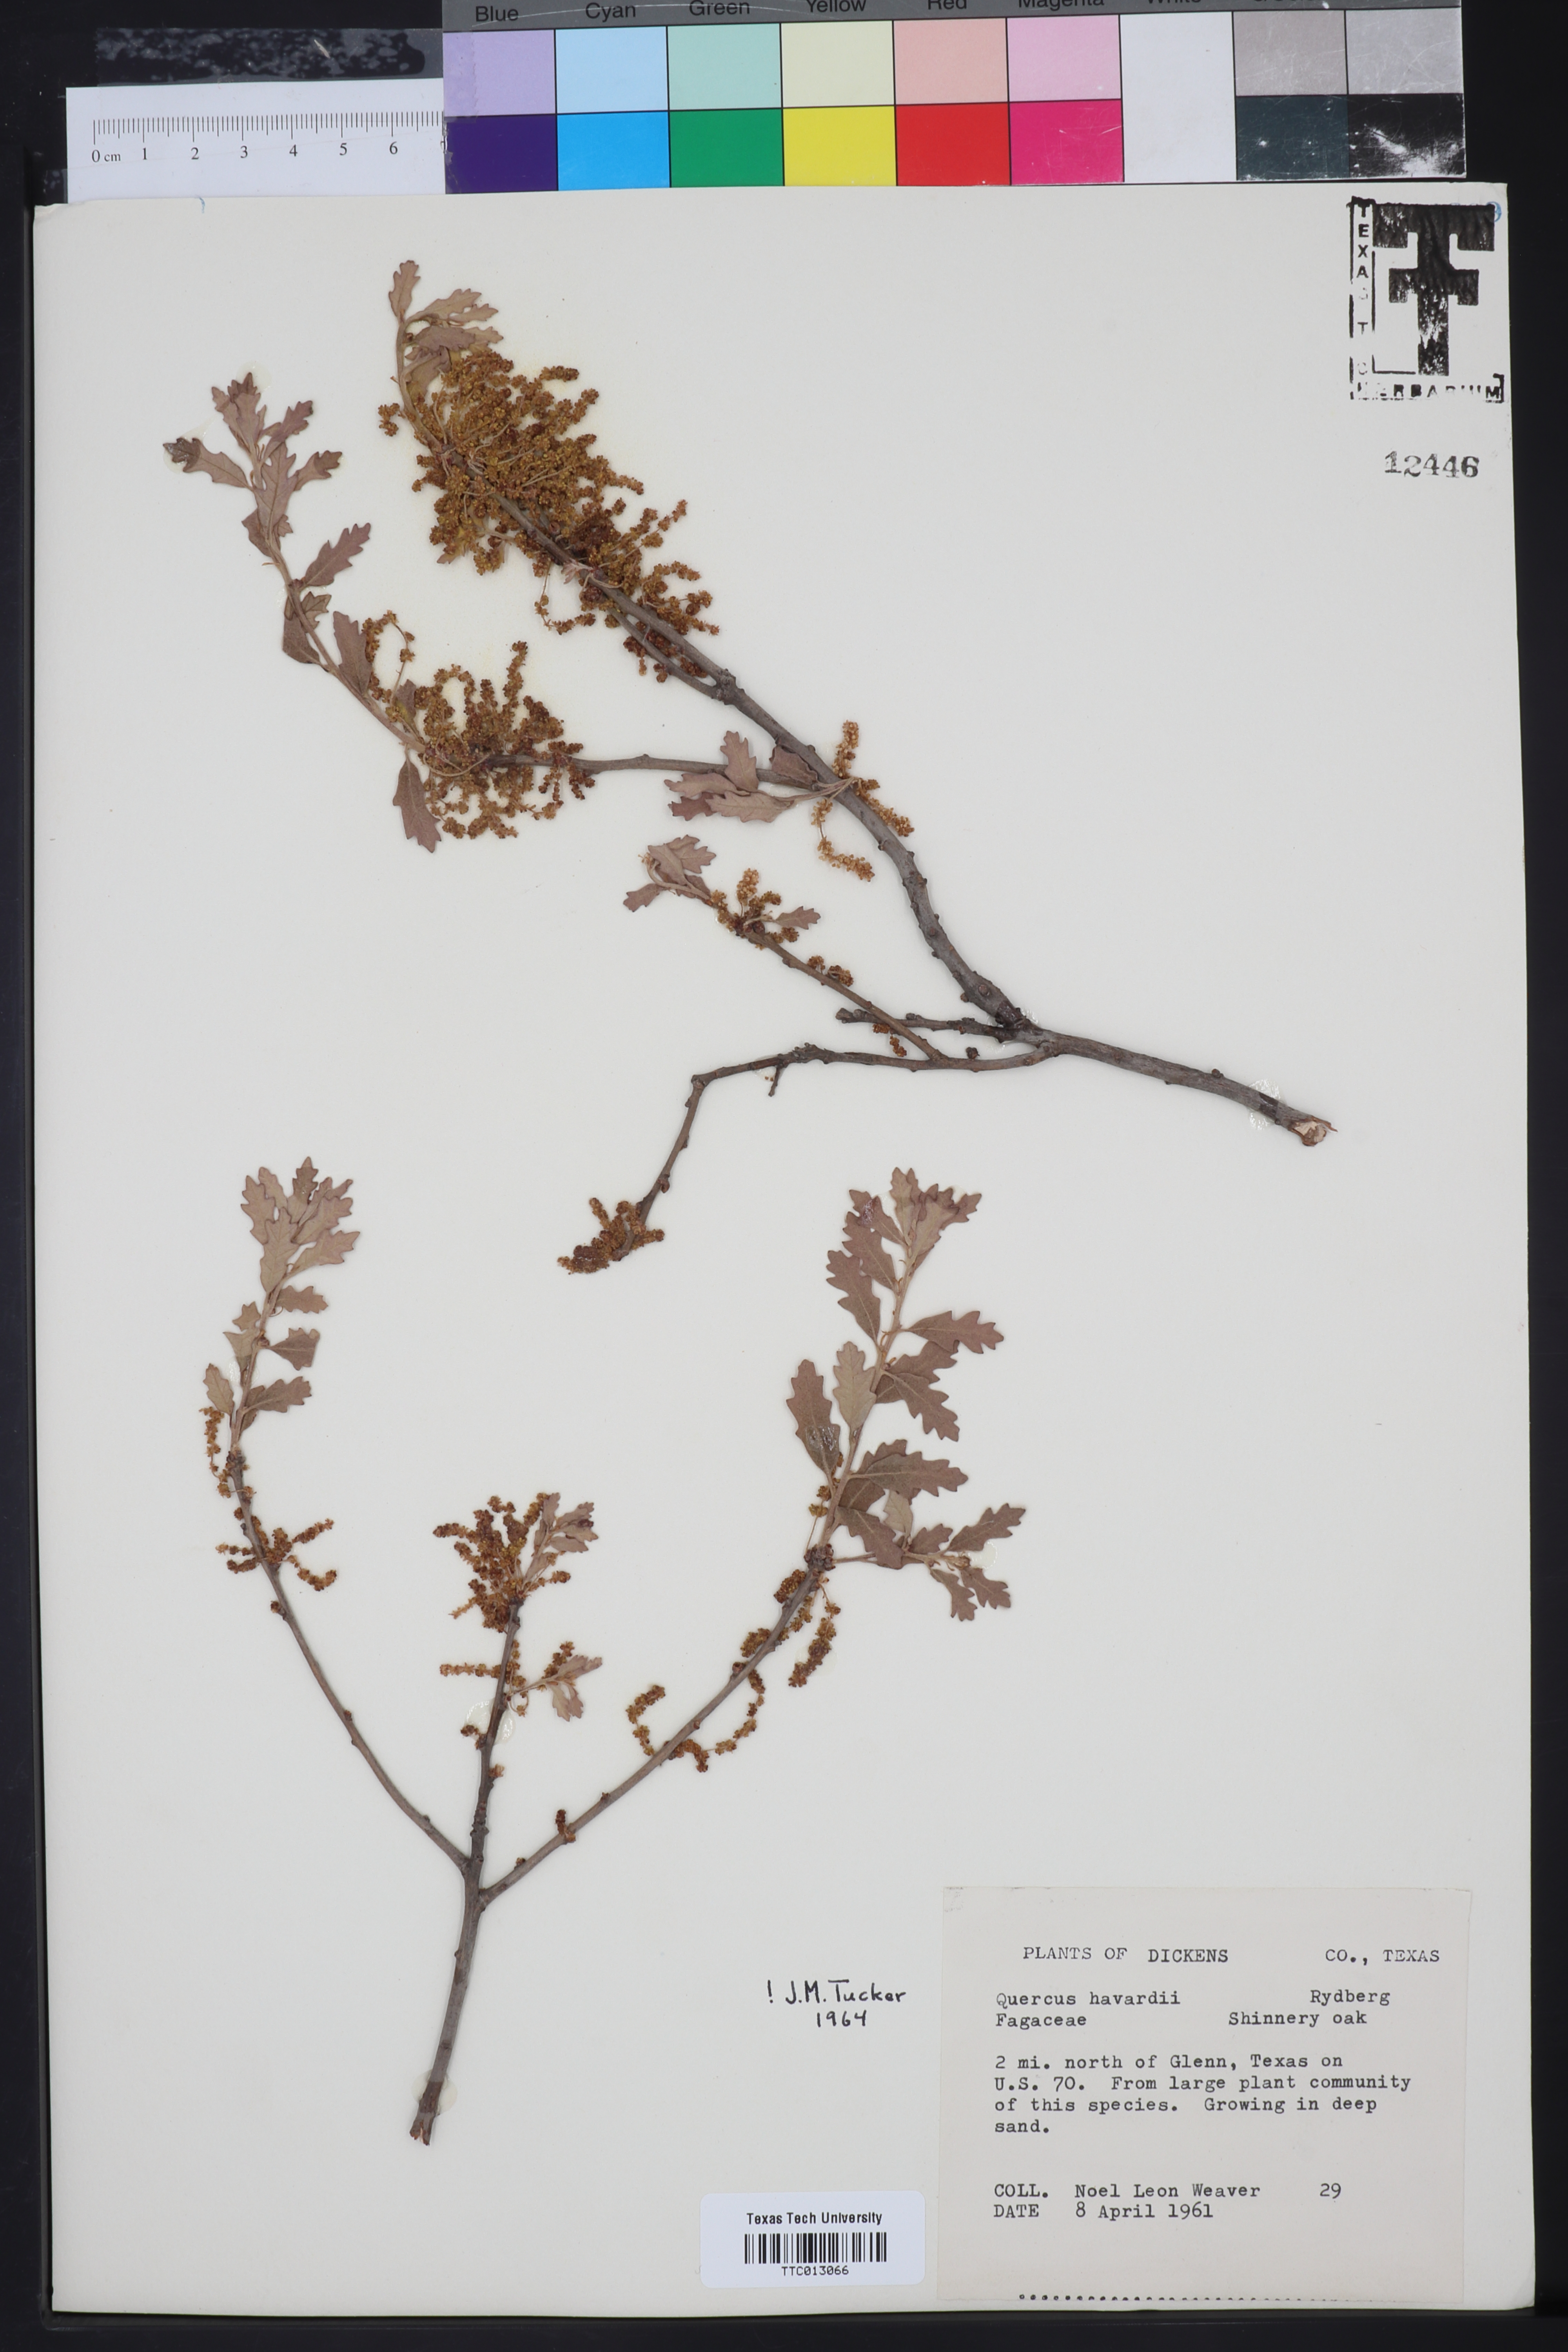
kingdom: Plantae
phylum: Tracheophyta
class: Magnoliopsida
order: Fagales
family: Fagaceae
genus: Quercus
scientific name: Quercus havardii
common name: Shinnery oak
